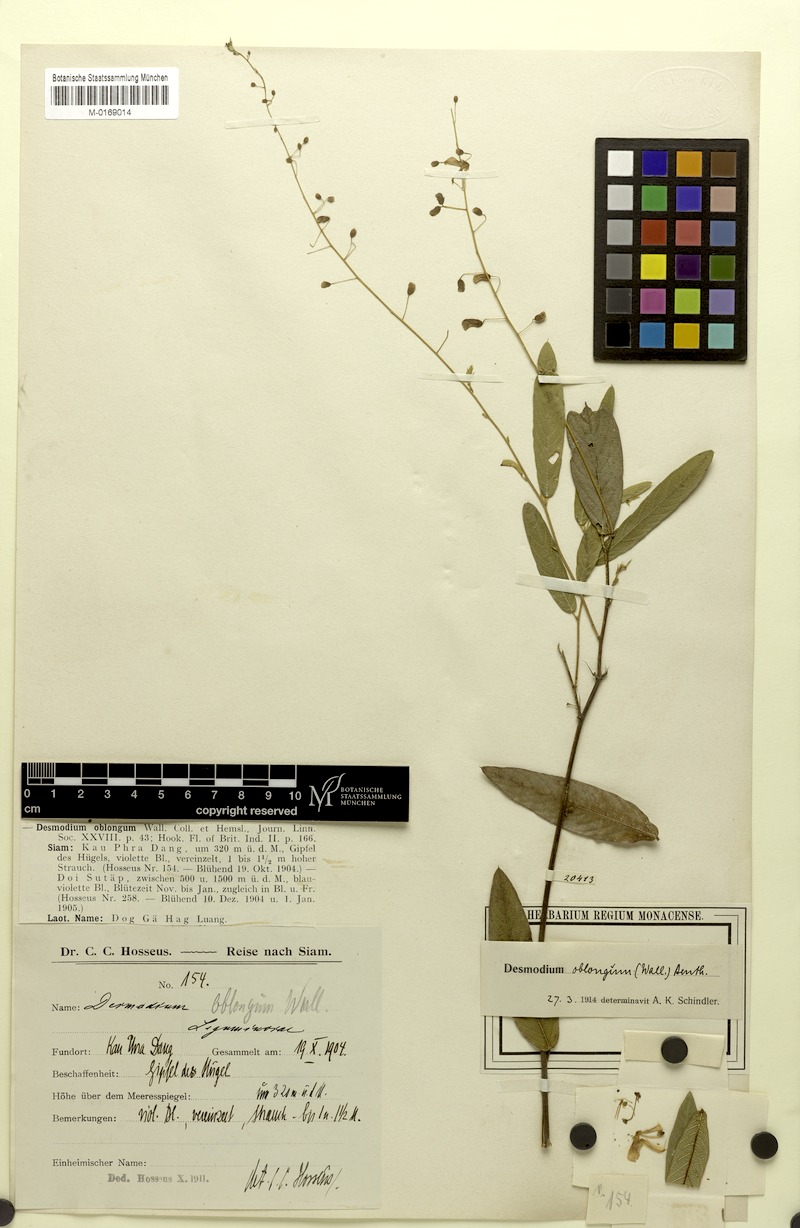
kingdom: Plantae
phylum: Tracheophyta
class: Magnoliopsida
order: Fabales
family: Fabaceae
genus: Uraria
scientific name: Uraria oblonga
